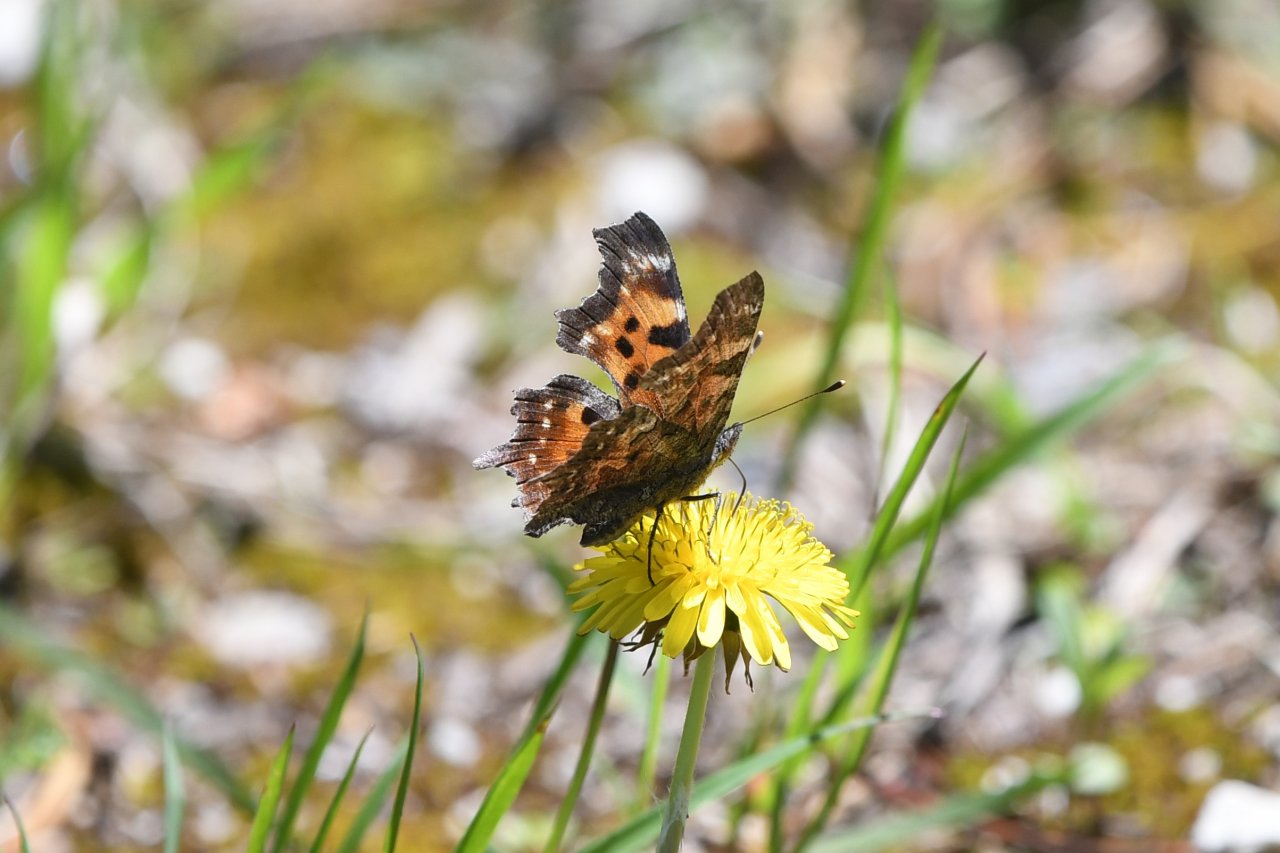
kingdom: Animalia
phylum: Arthropoda
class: Insecta
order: Lepidoptera
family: Nymphalidae
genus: Polygonia
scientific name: Polygonia faunus
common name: Green Comma
